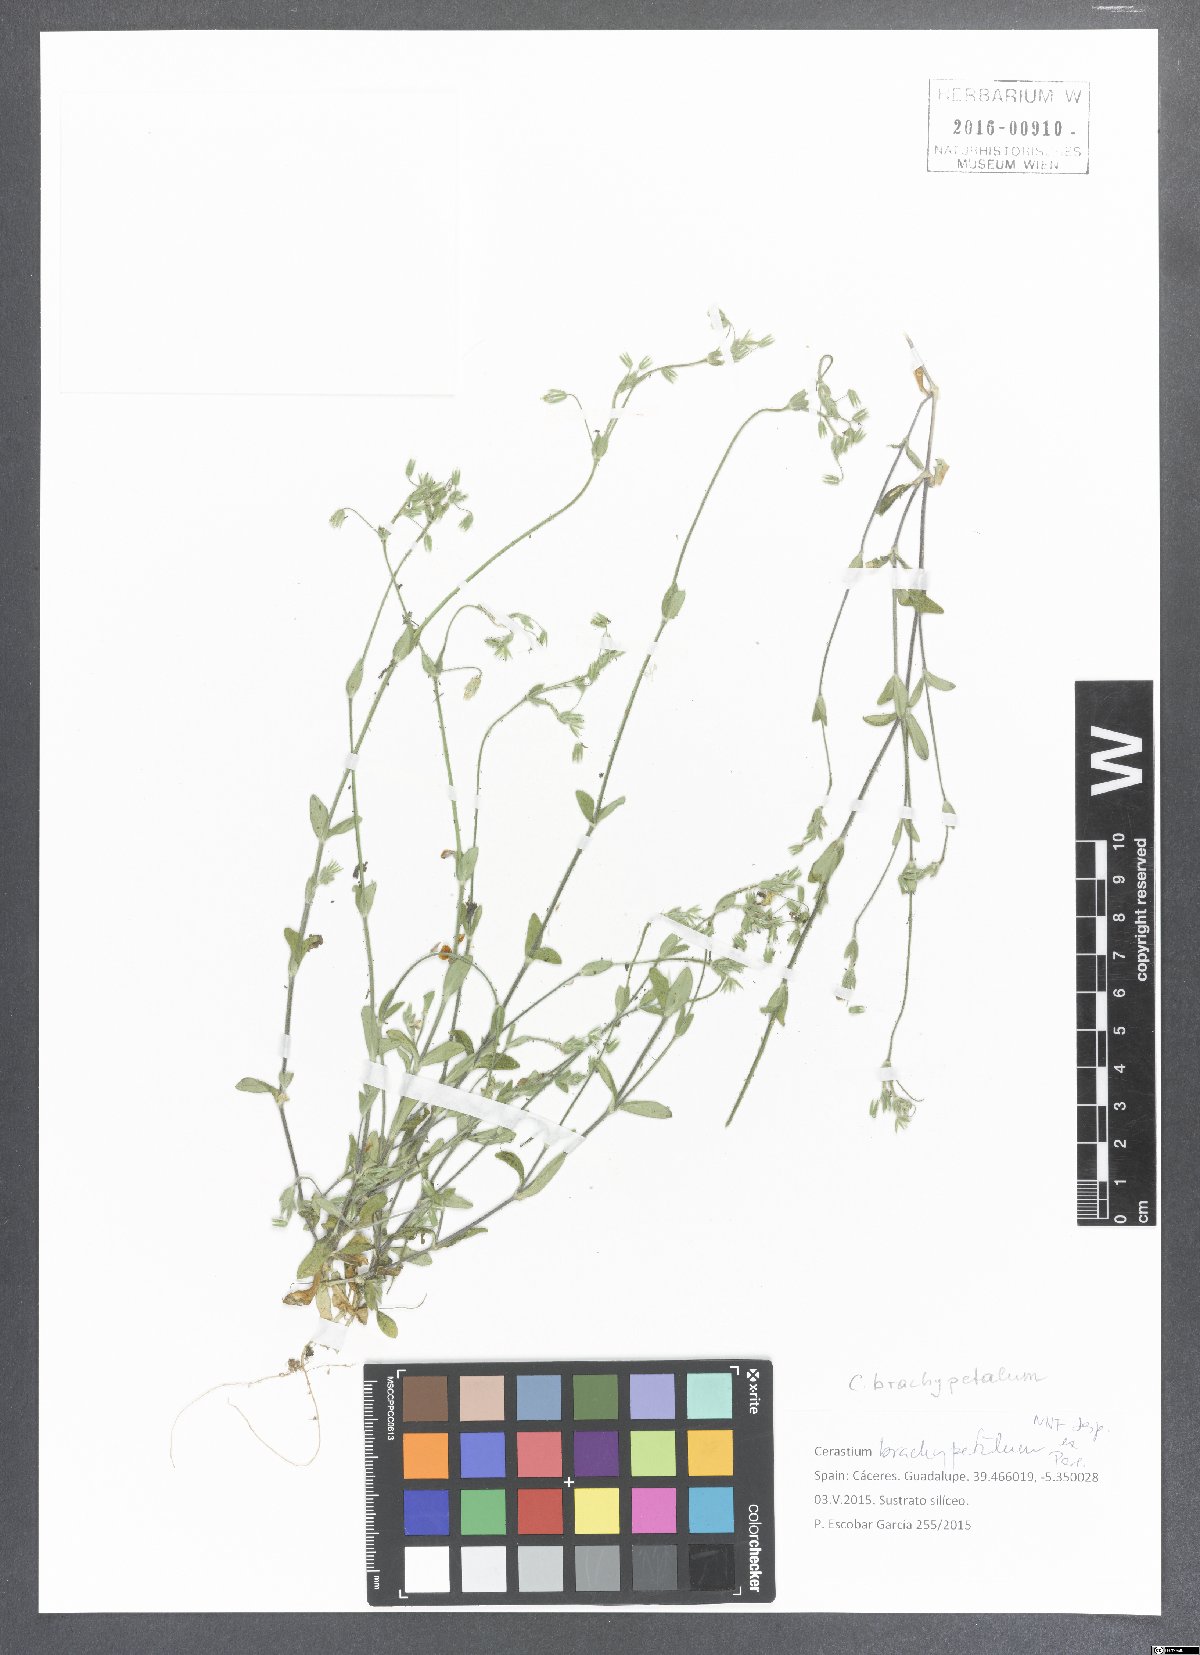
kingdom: Plantae
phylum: Tracheophyta
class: Magnoliopsida
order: Caryophyllales
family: Caryophyllaceae
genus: Cerastium
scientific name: Cerastium brachypetalum
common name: Grey mouse-ear
